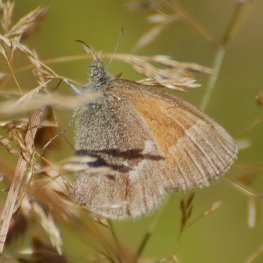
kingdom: Animalia
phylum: Arthropoda
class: Insecta
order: Lepidoptera
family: Nymphalidae
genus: Coenonympha
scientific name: Coenonympha tullia
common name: Large Heath
